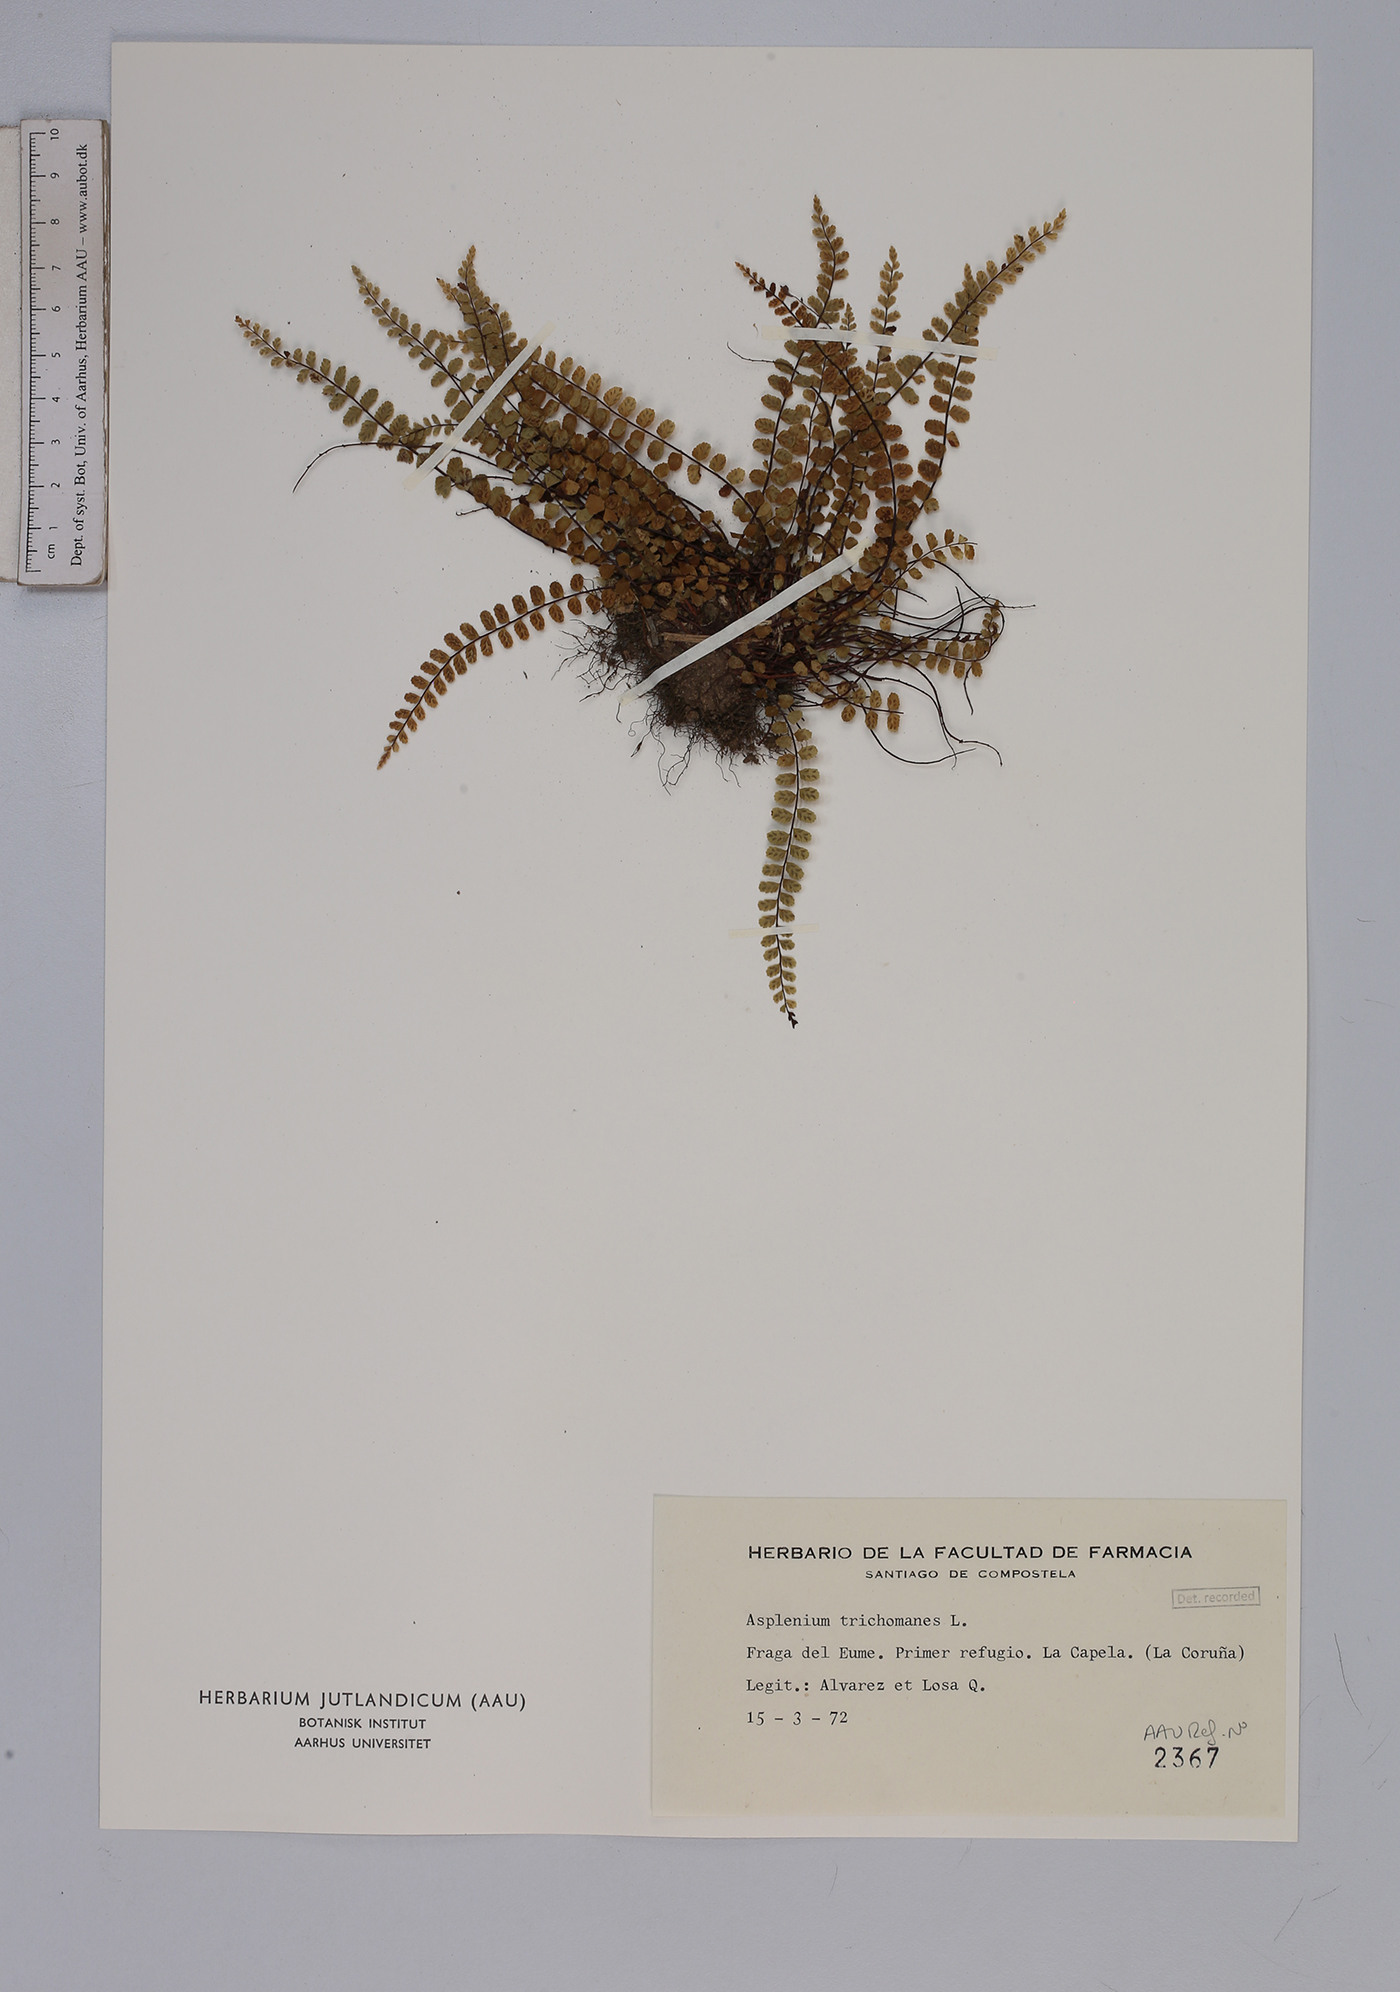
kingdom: Plantae
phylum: Tracheophyta
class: Polypodiopsida
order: Polypodiales
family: Aspleniaceae
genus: Asplenium
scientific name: Asplenium trichomanes
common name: Maidenhair spleenwort
